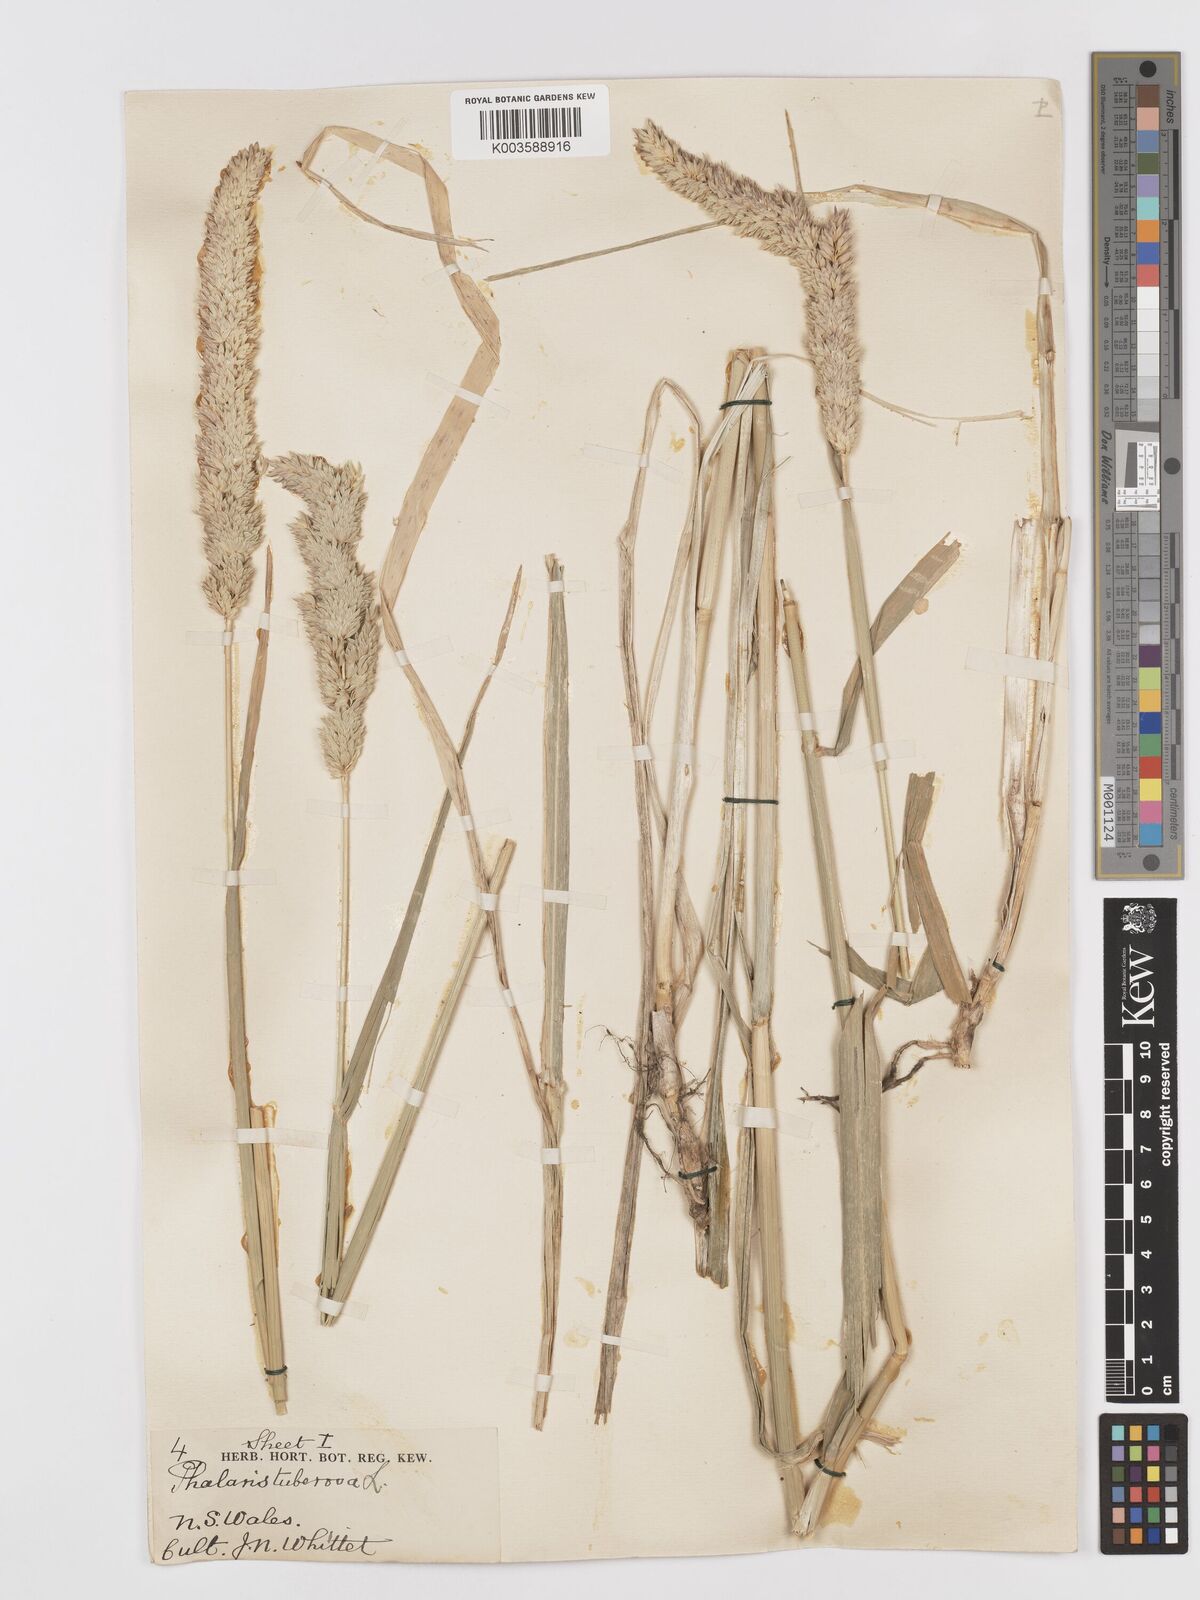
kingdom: Plantae
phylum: Tracheophyta
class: Liliopsida
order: Poales
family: Poaceae
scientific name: Poaceae
